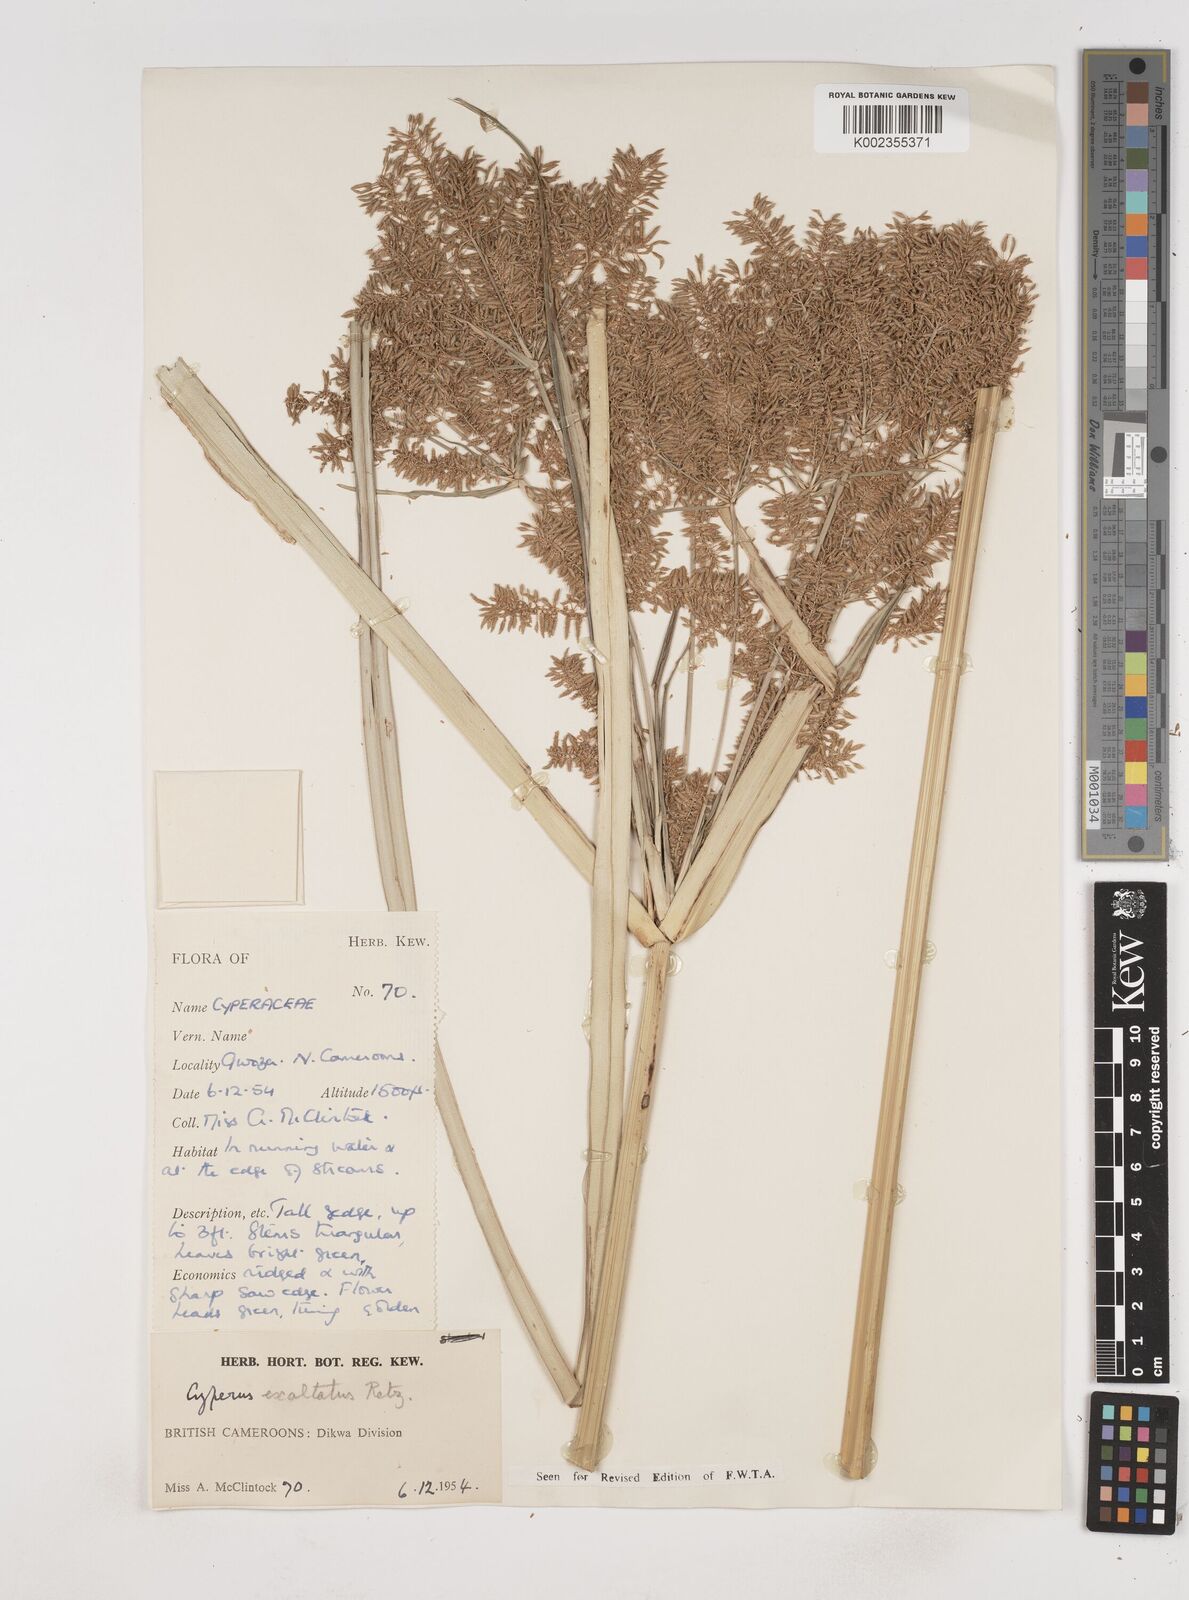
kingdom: Plantae
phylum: Tracheophyta
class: Liliopsida
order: Poales
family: Cyperaceae
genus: Cyperus
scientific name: Cyperus exaltatus
